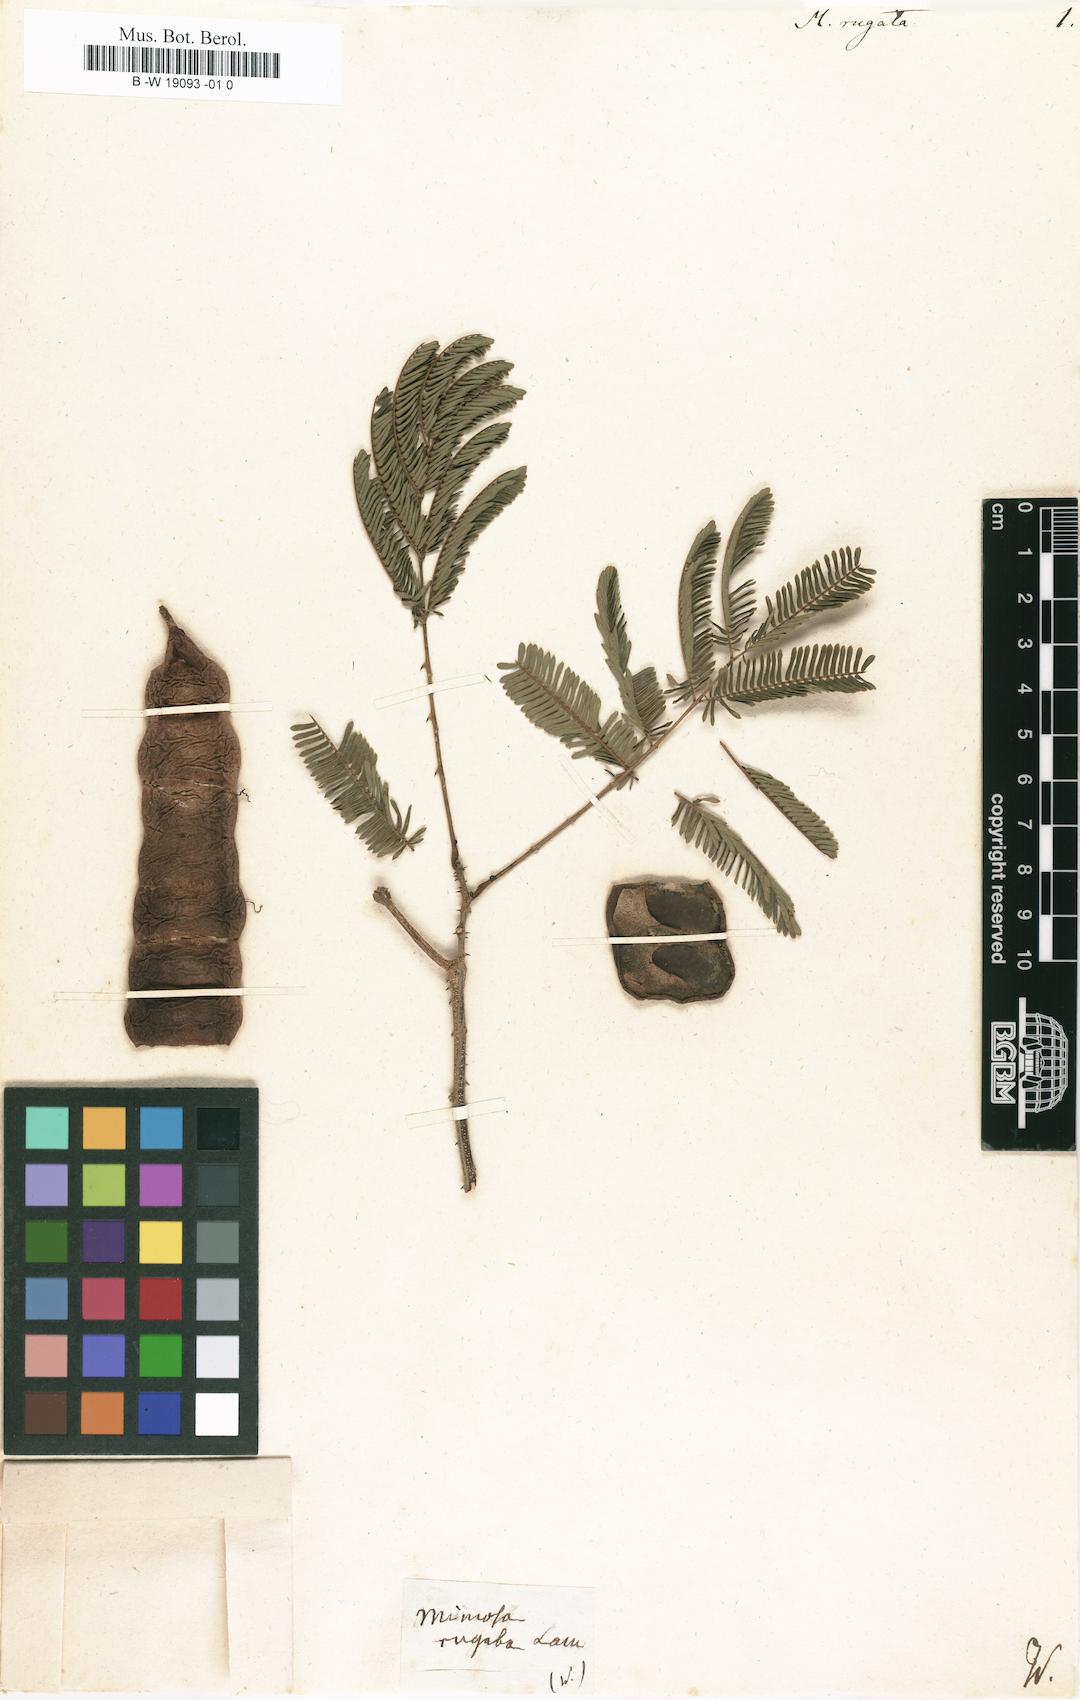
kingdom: Plantae
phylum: Tracheophyta
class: Magnoliopsida
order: Fabales
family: Fabaceae
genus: Senegalia
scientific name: Senegalia rugata
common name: Soap-pod
